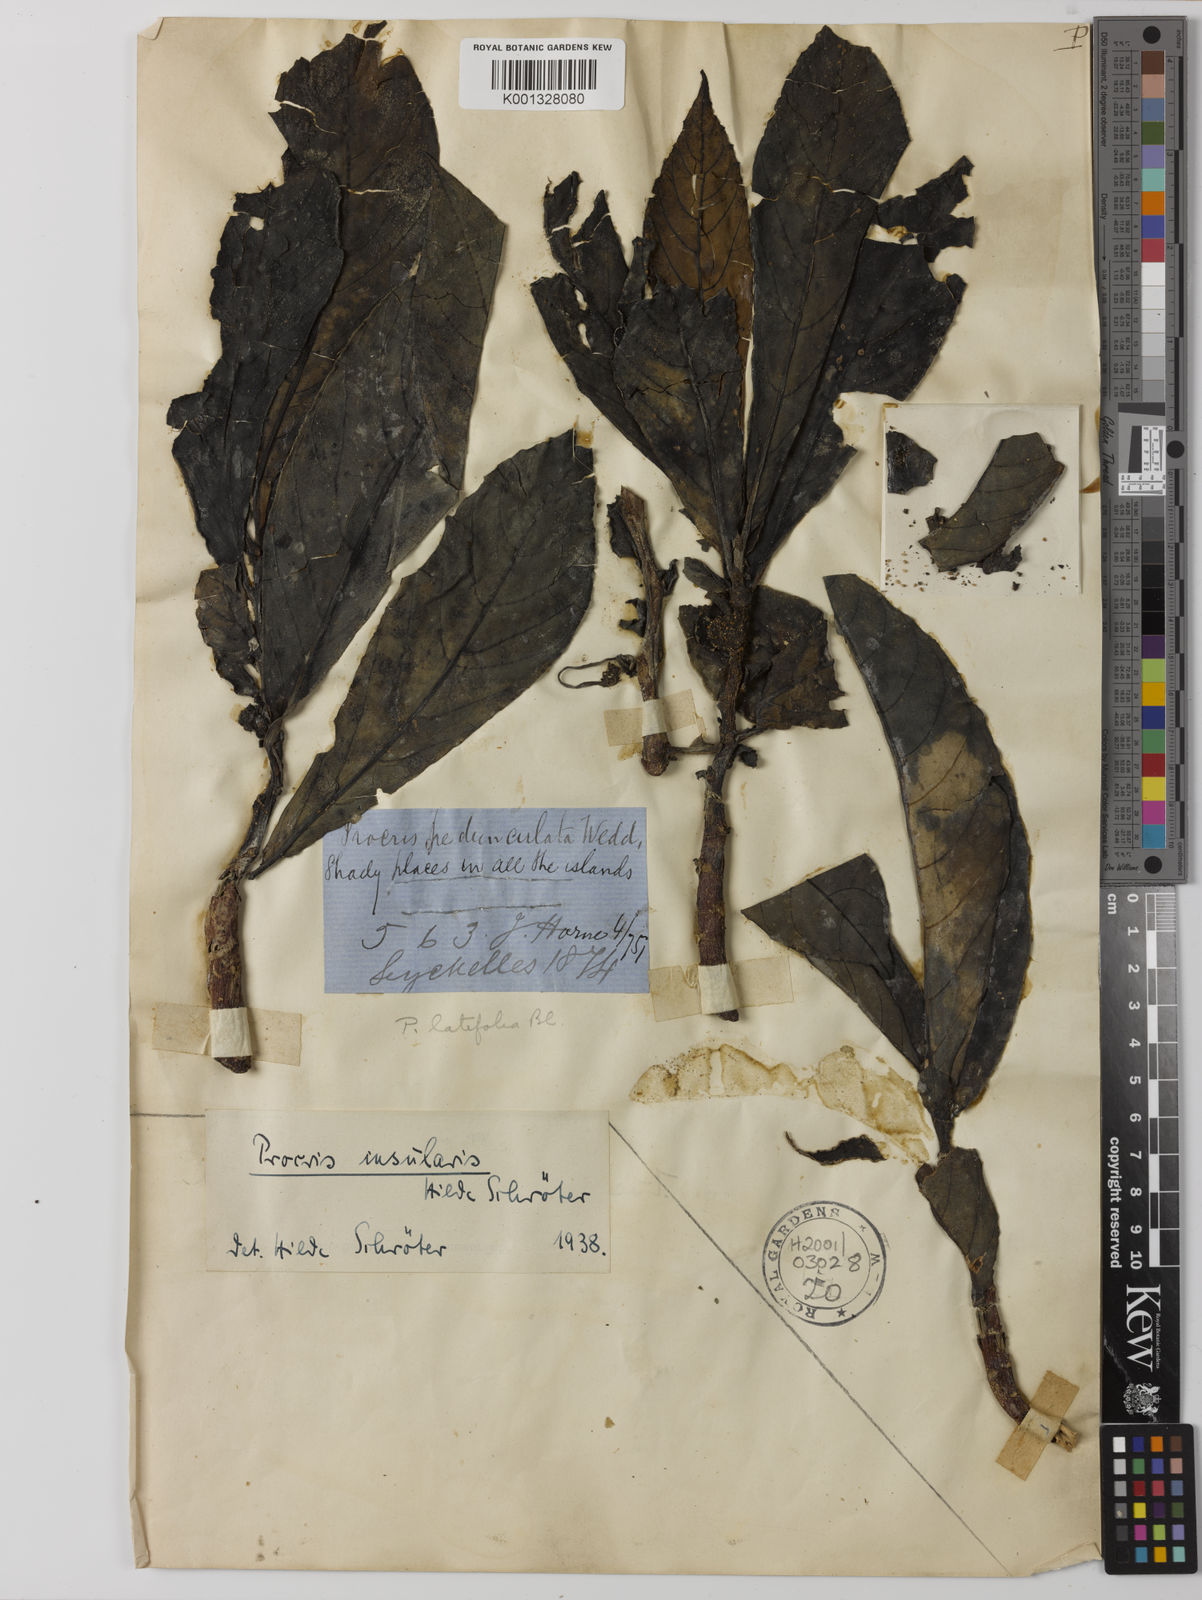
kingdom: Plantae
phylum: Tracheophyta
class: Magnoliopsida
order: Rosales
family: Urticaceae
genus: Procris
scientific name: Procris insularis
